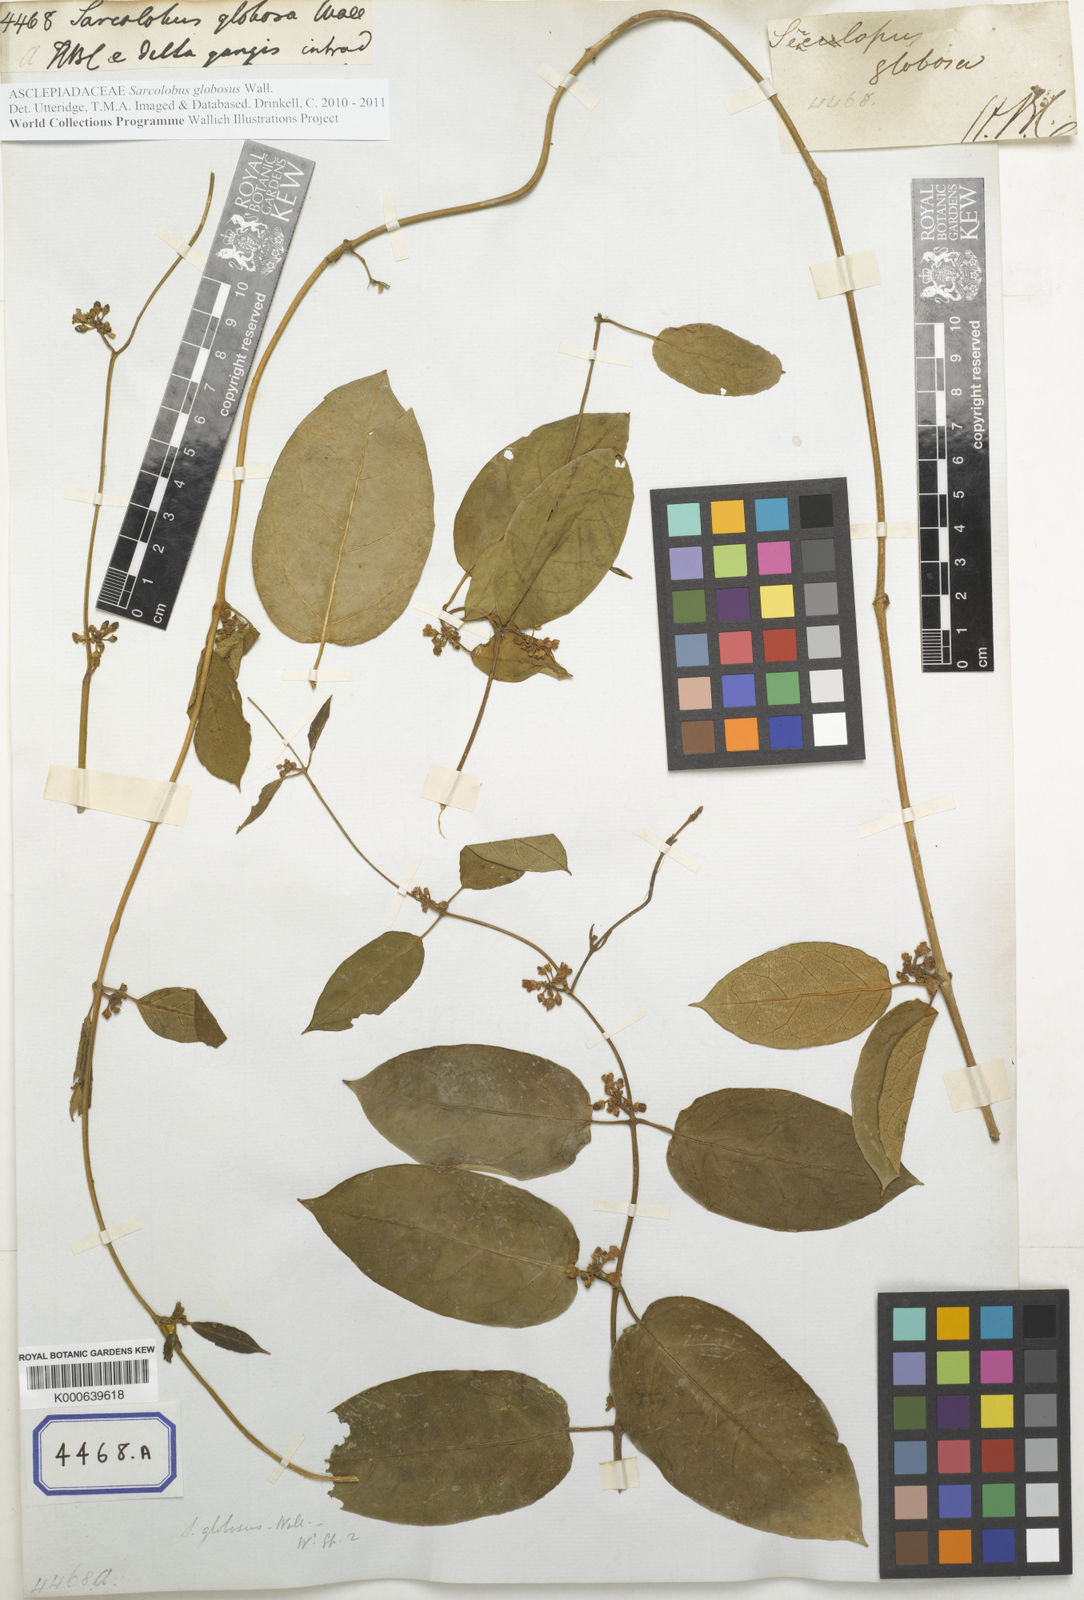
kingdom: Plantae
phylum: Tracheophyta
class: Magnoliopsida
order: Gentianales
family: Apocynaceae
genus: Sarcolobus
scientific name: Sarcolobus globosus
